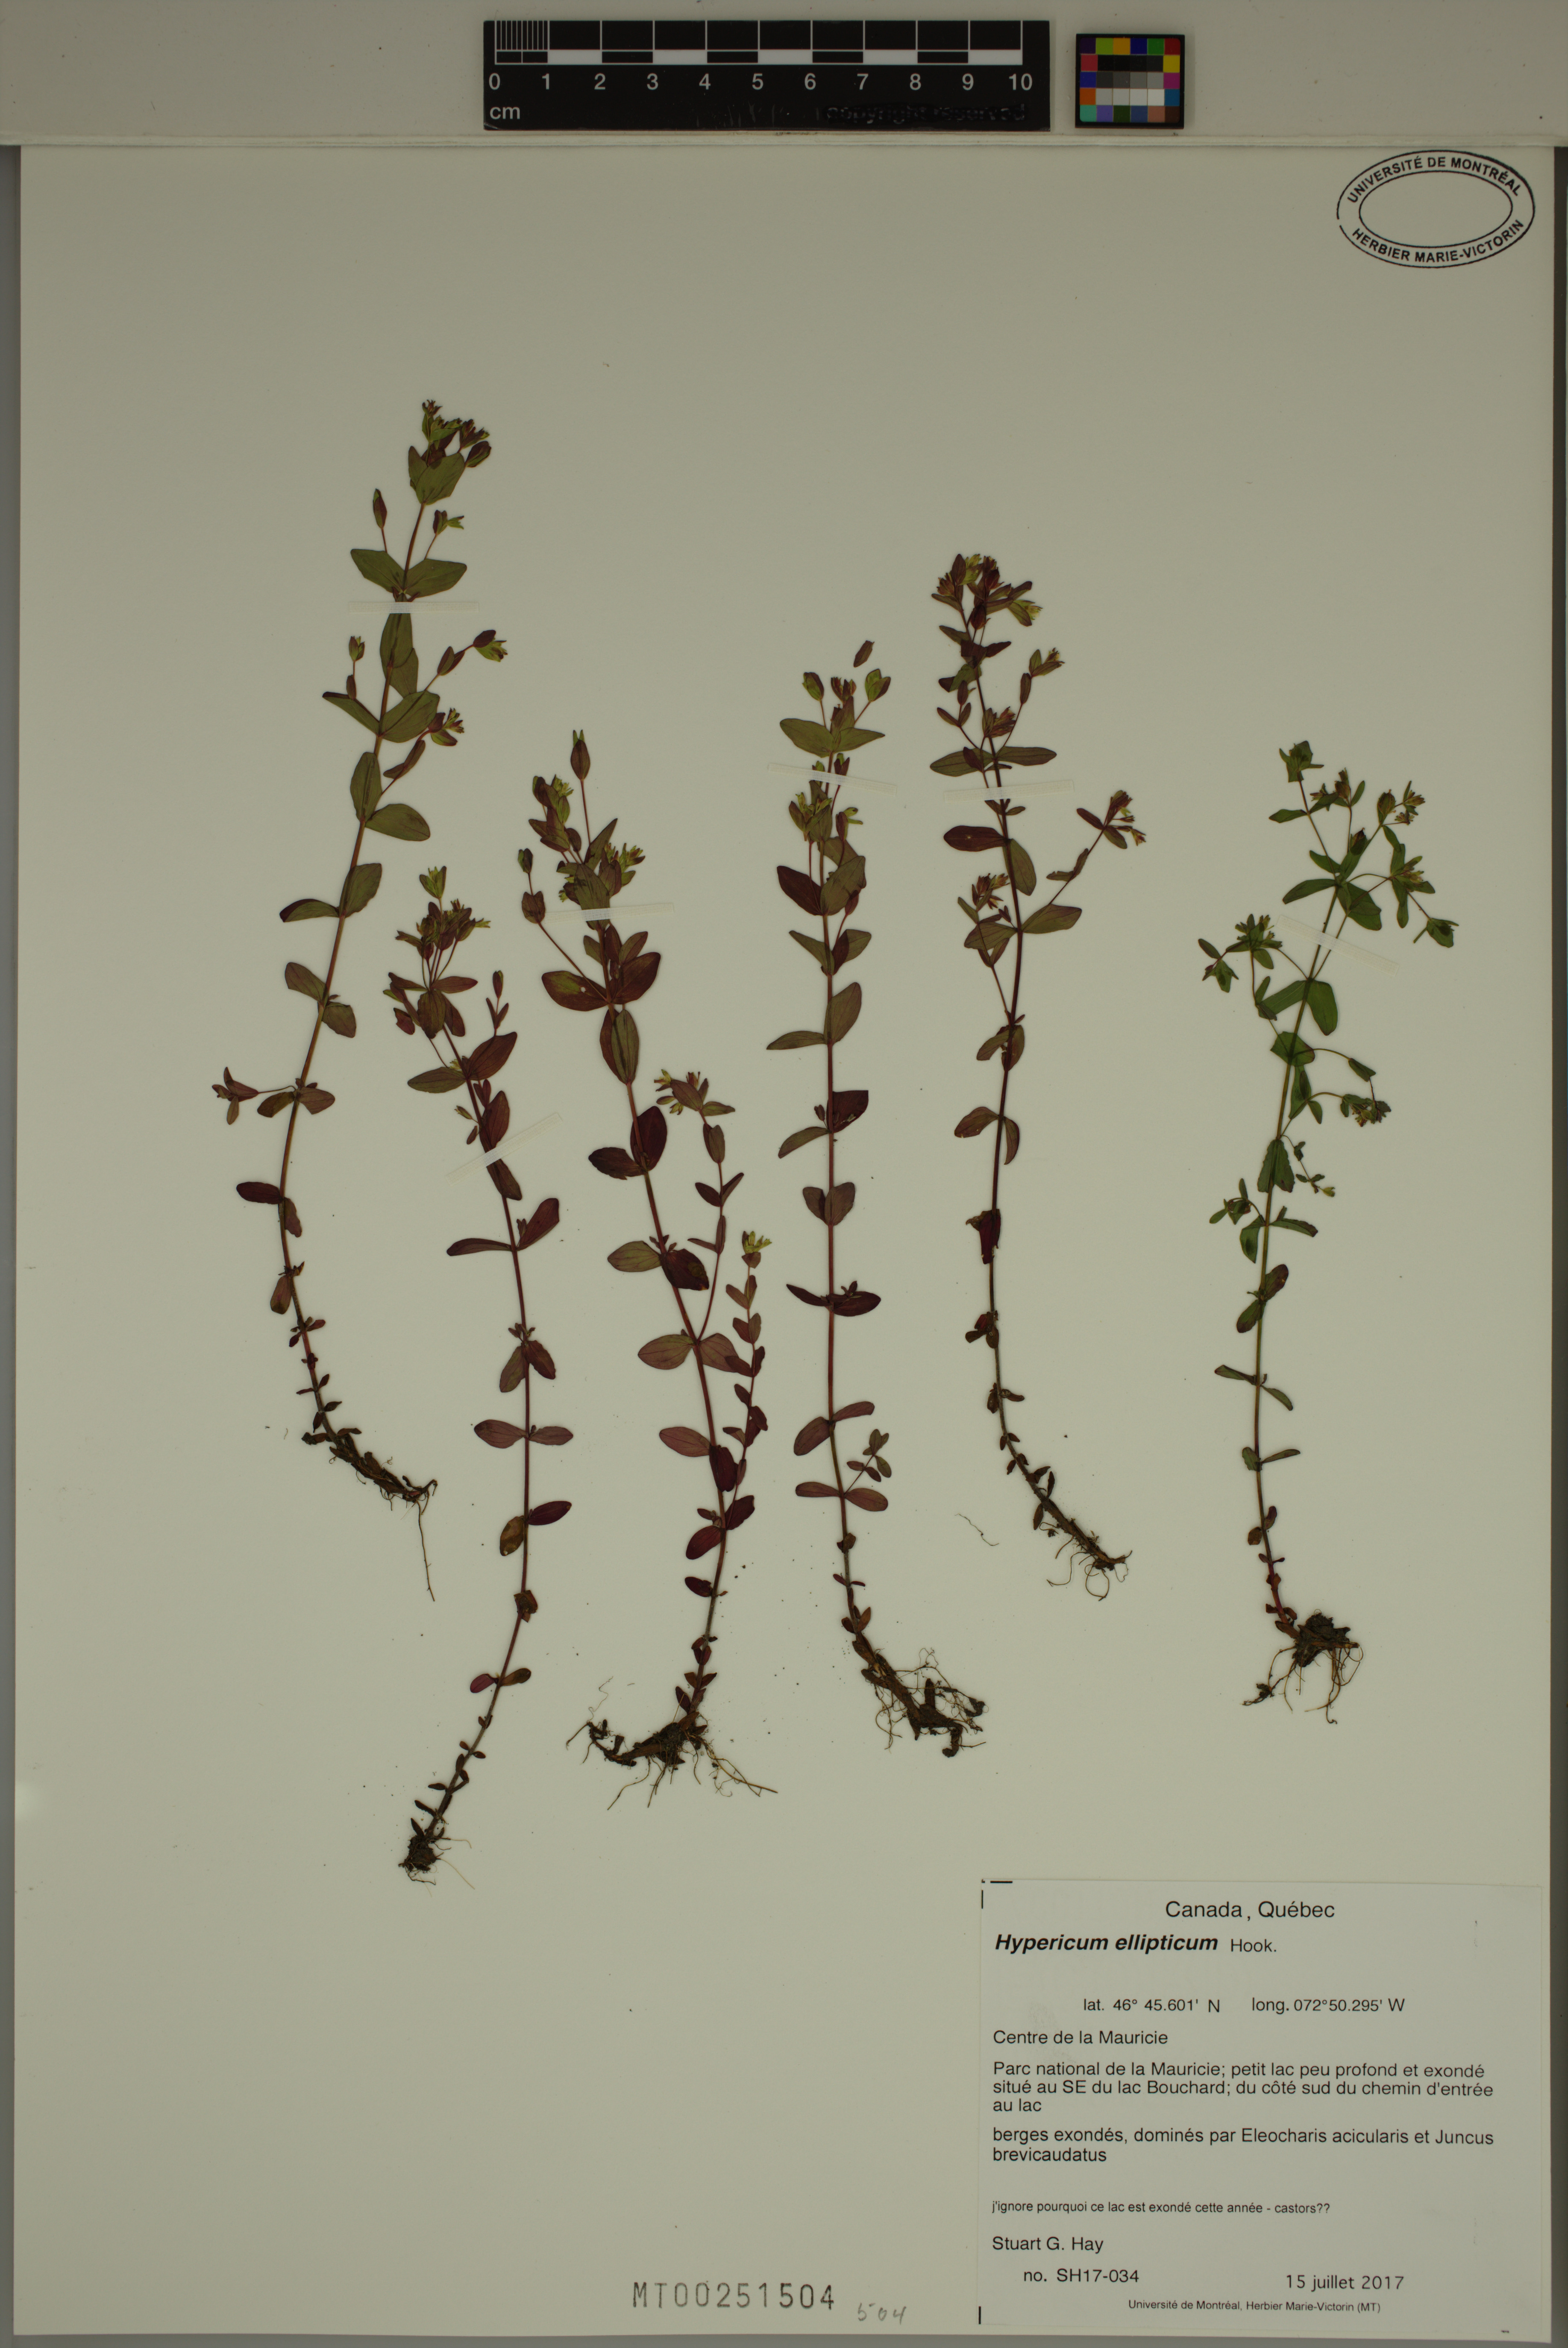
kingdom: Plantae
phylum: Tracheophyta
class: Magnoliopsida
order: Malpighiales
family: Hypericaceae
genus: Hypericum
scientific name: Hypericum ellipticum
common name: Elliptic st. john's-wort
